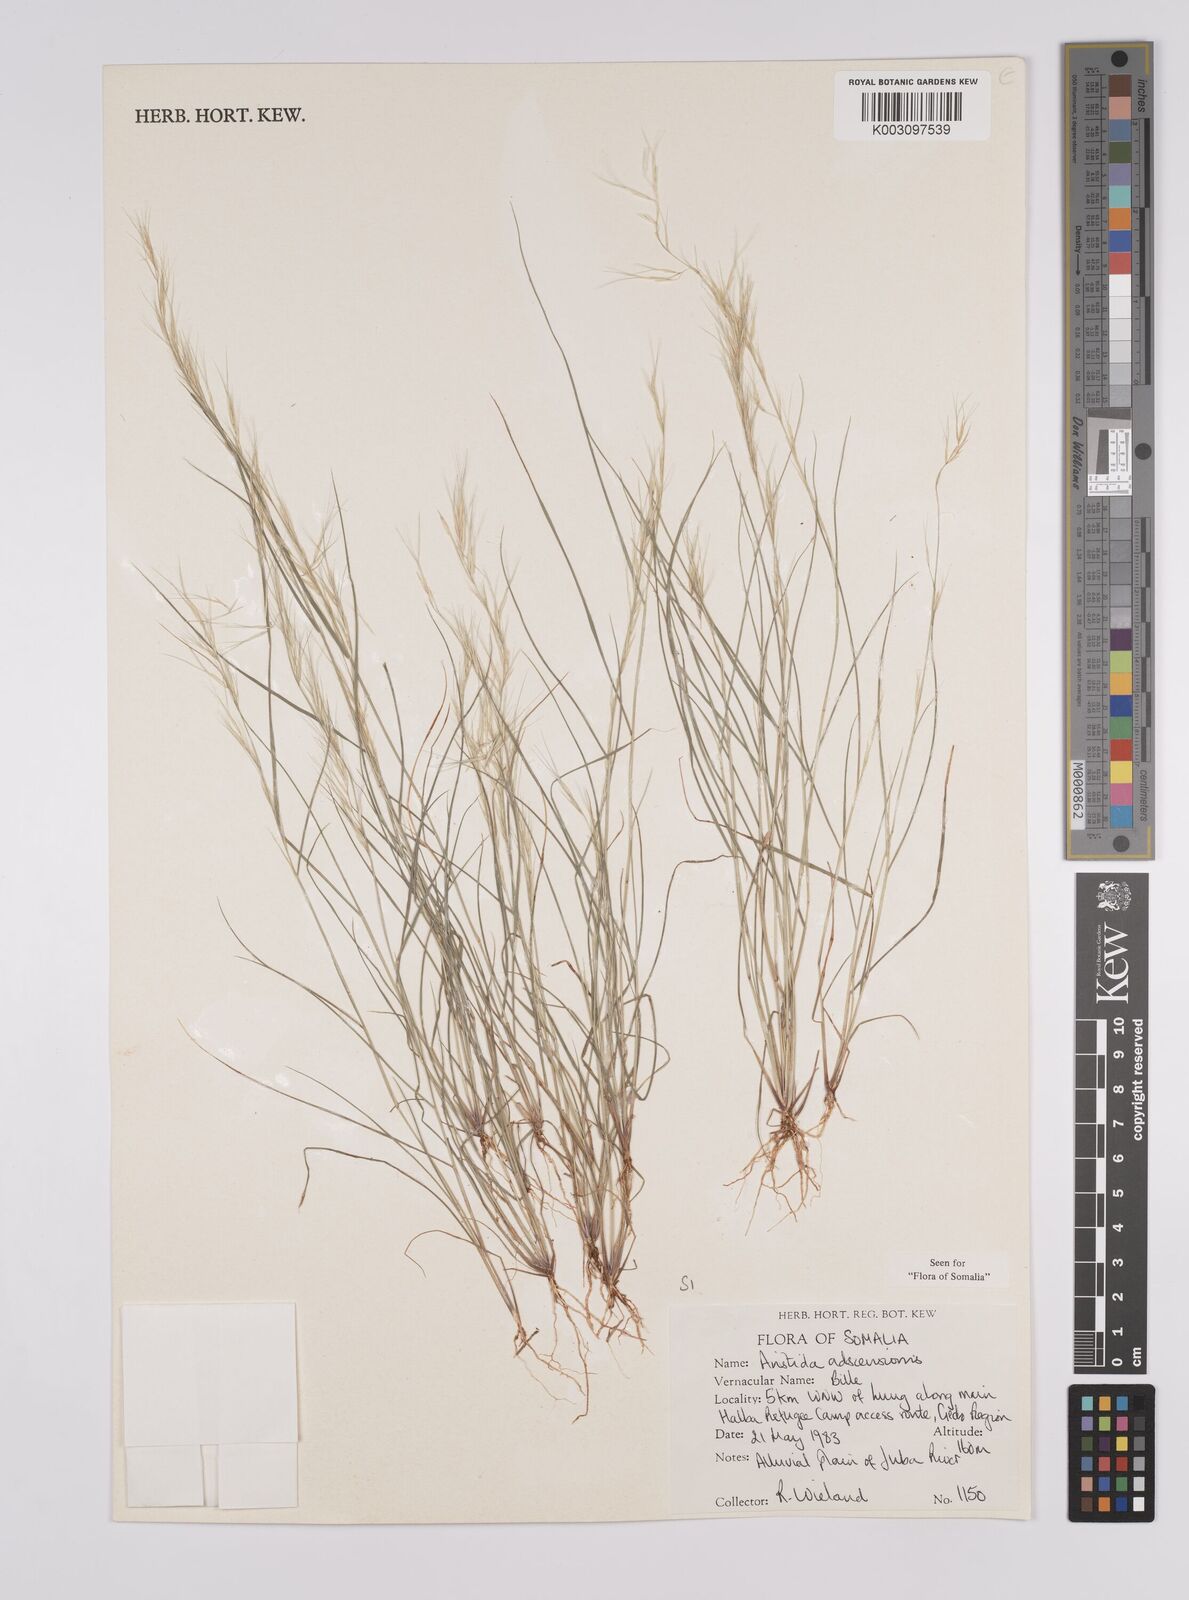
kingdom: Plantae
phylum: Tracheophyta
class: Liliopsida
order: Poales
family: Poaceae
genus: Aristida
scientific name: Aristida laevis
